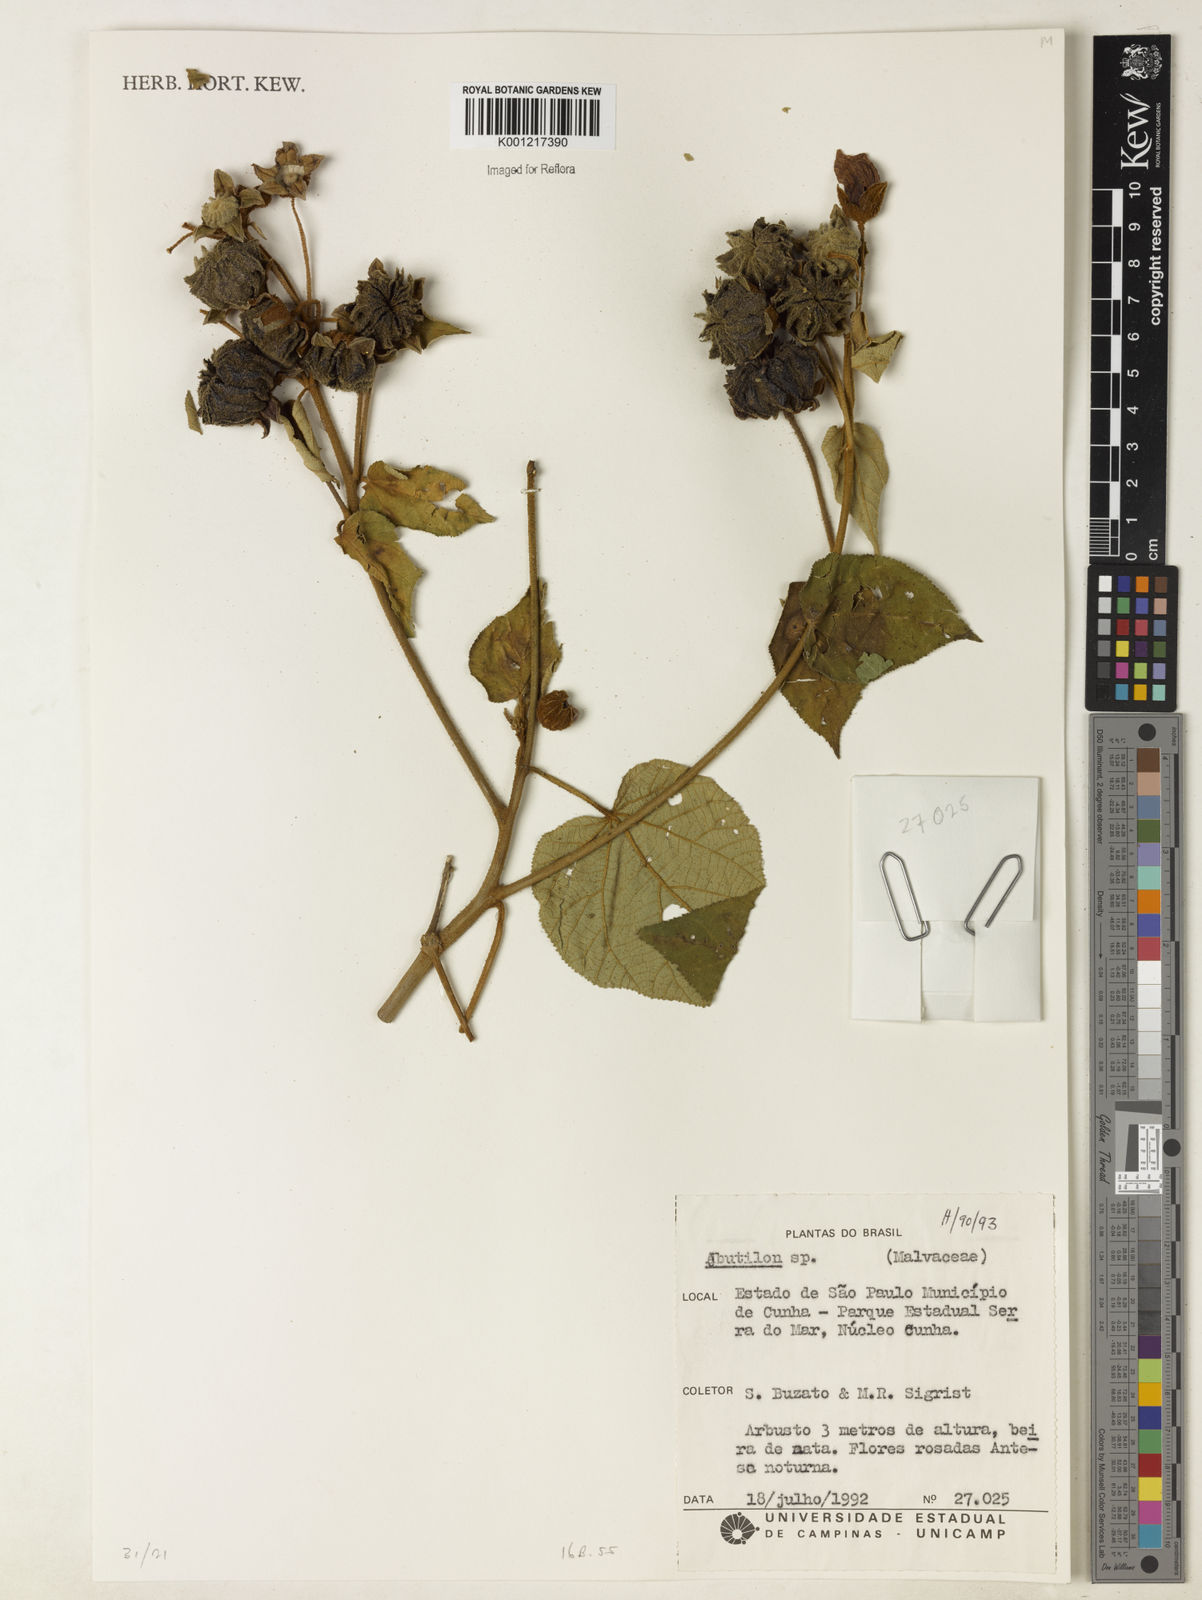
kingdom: Plantae
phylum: Tracheophyta
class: Magnoliopsida
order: Malvales
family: Malvaceae
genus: Abutilon
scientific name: Abutilon
